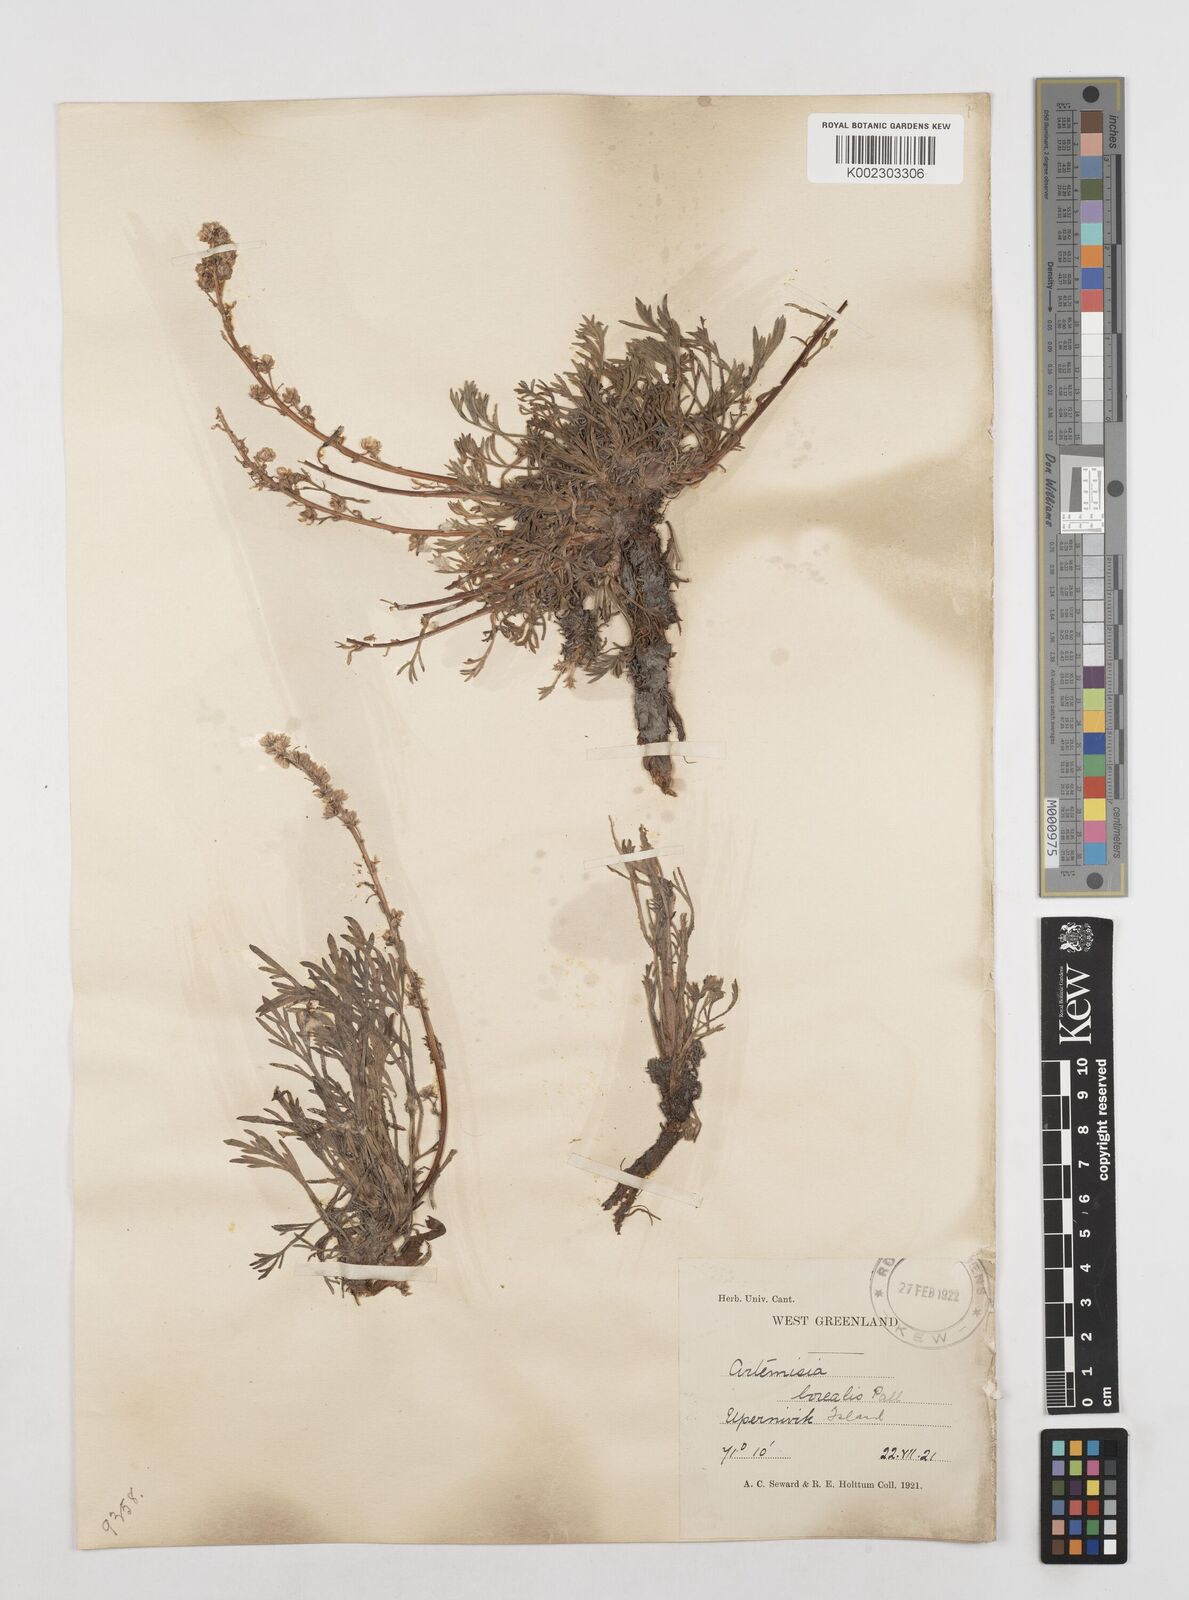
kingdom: Plantae
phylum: Tracheophyta
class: Magnoliopsida
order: Asterales
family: Asteraceae
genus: Artemisia
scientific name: Artemisia borealis
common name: Boreal sage
